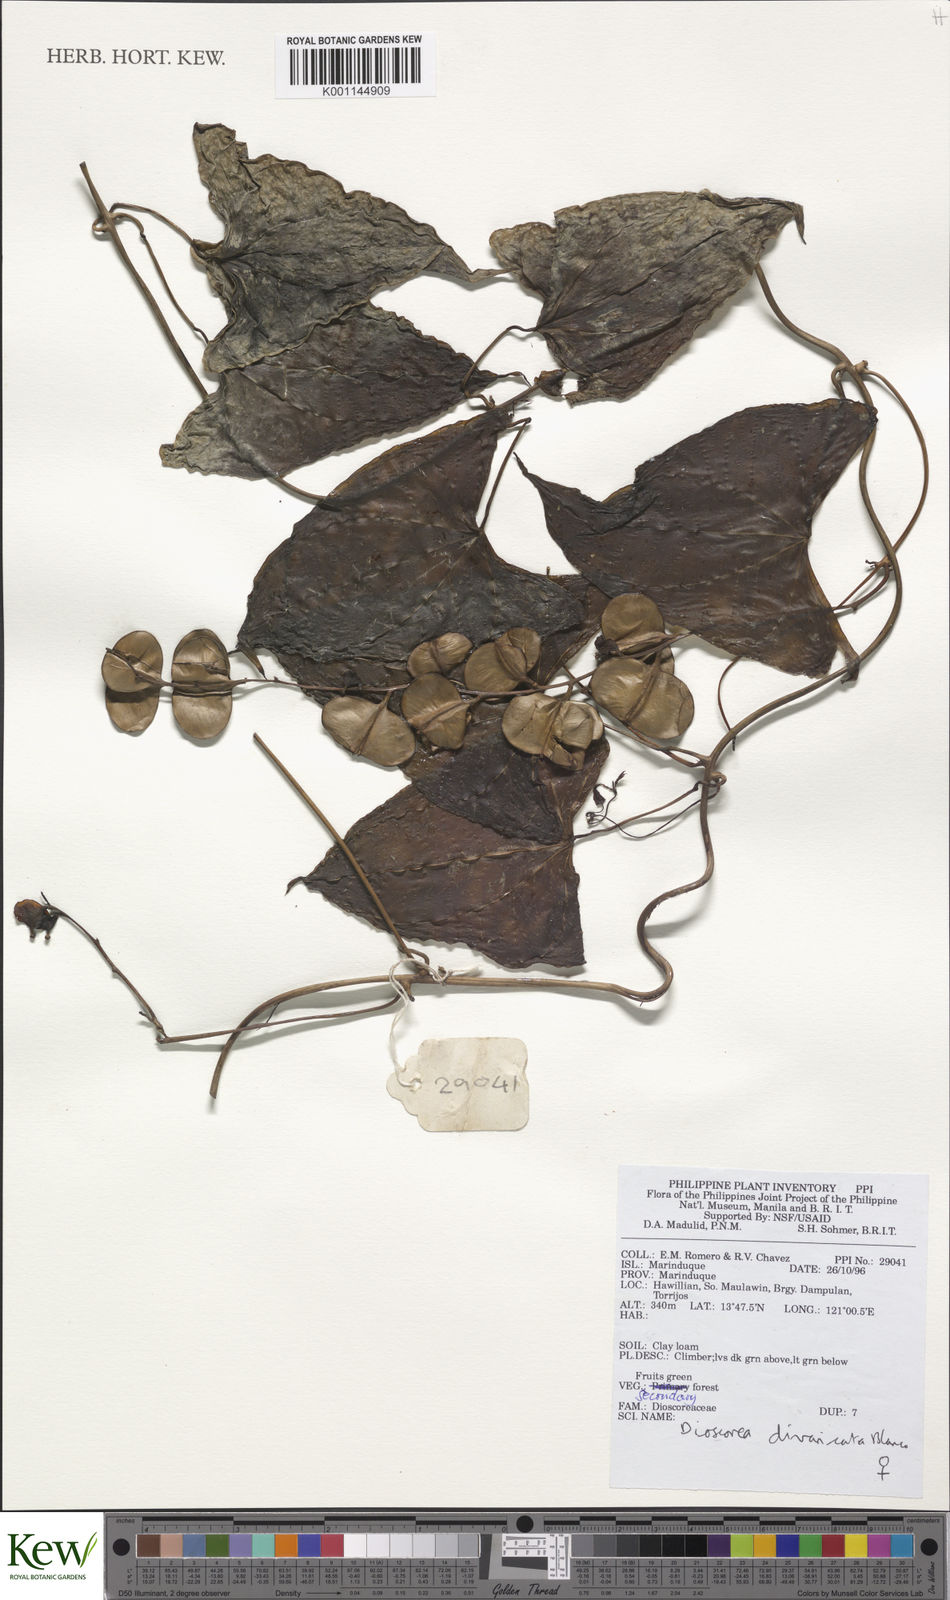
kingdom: Plantae
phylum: Tracheophyta
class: Liliopsida
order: Dioscoreales
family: Dioscoreaceae
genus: Dioscorea
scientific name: Dioscorea divaricata
